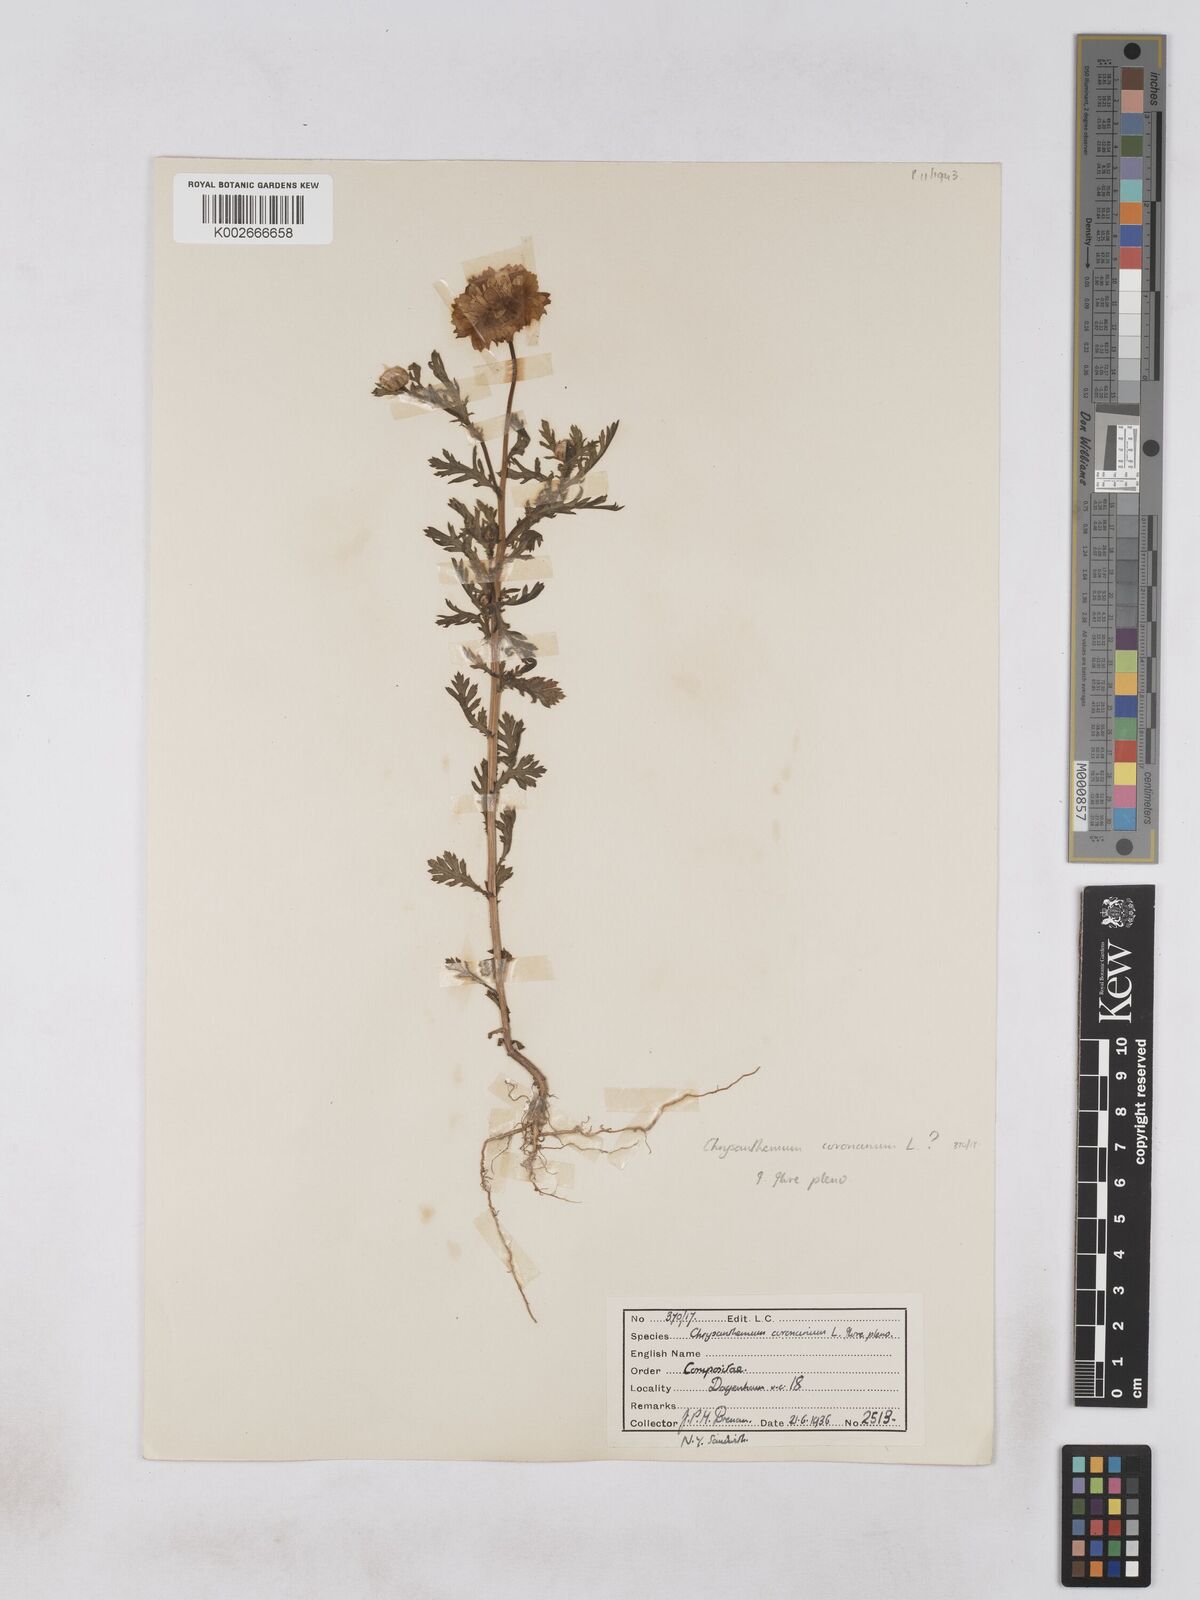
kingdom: Plantae
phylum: Tracheophyta
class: Magnoliopsida
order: Asterales
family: Asteraceae
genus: Glebionis
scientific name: Glebionis coronaria
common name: Crowndaisy
